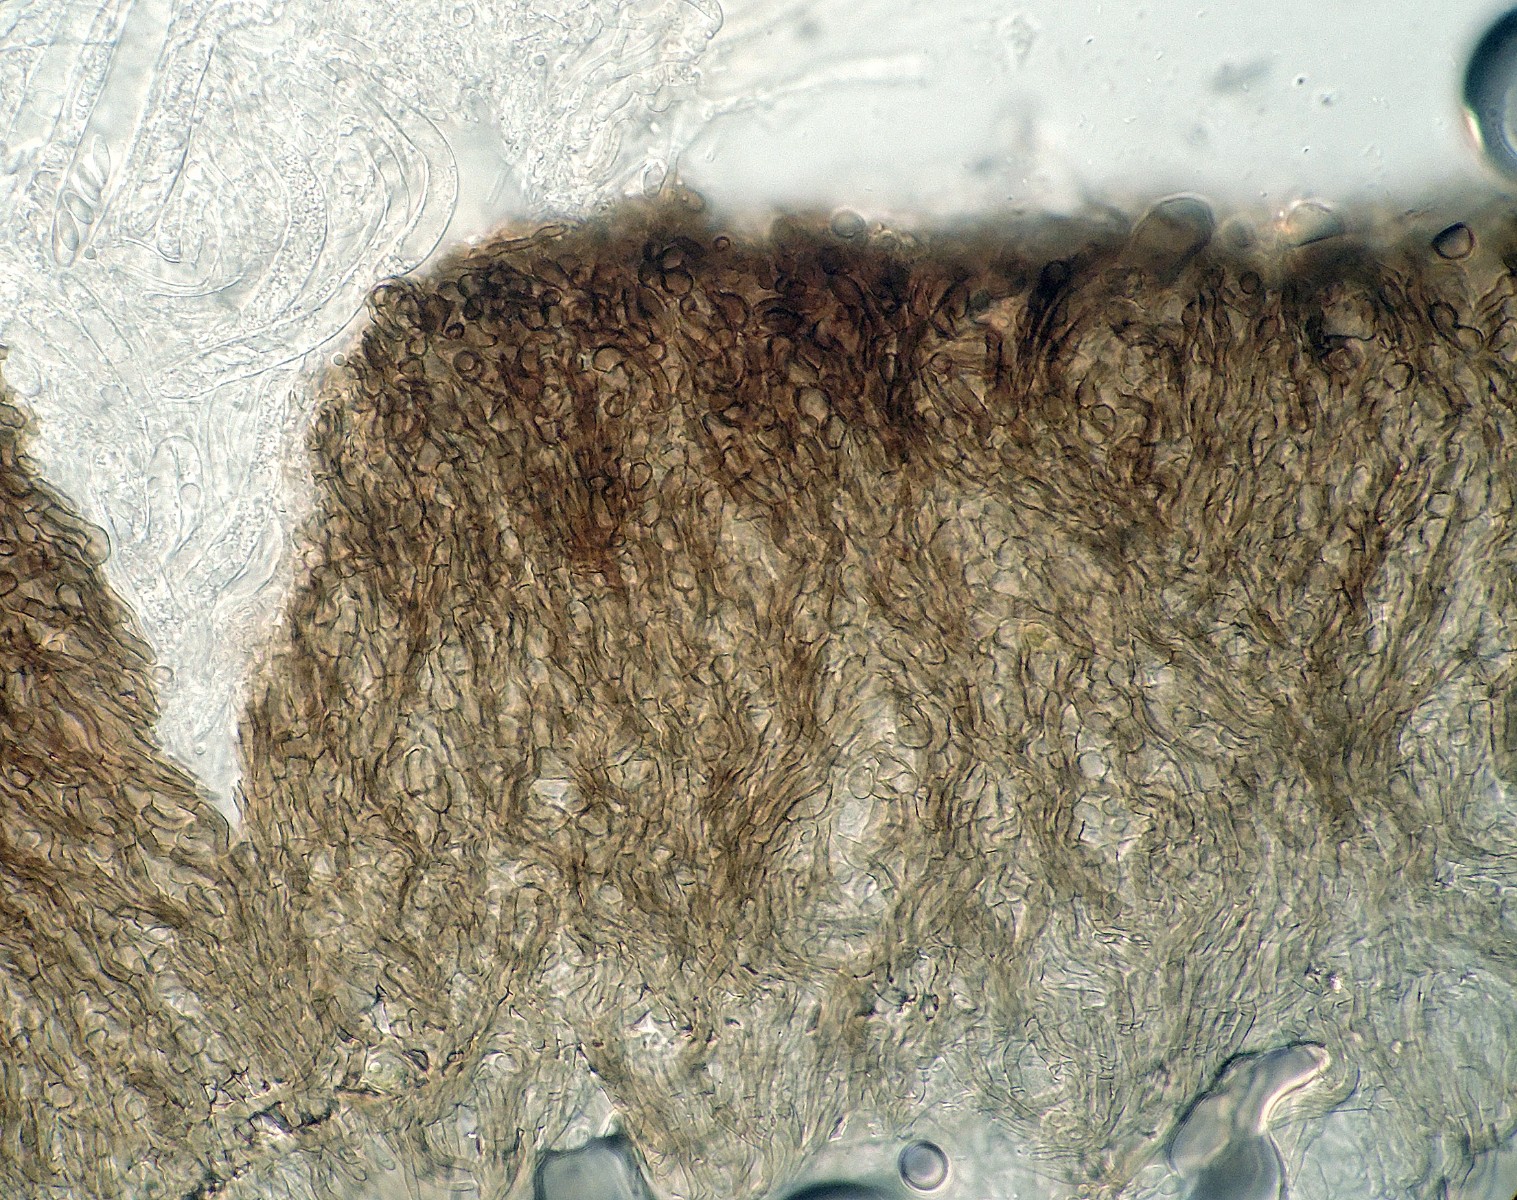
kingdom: Fungi
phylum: Ascomycota
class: Leotiomycetes
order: Helotiales
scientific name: Helotiales
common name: stilkskiveordenen
